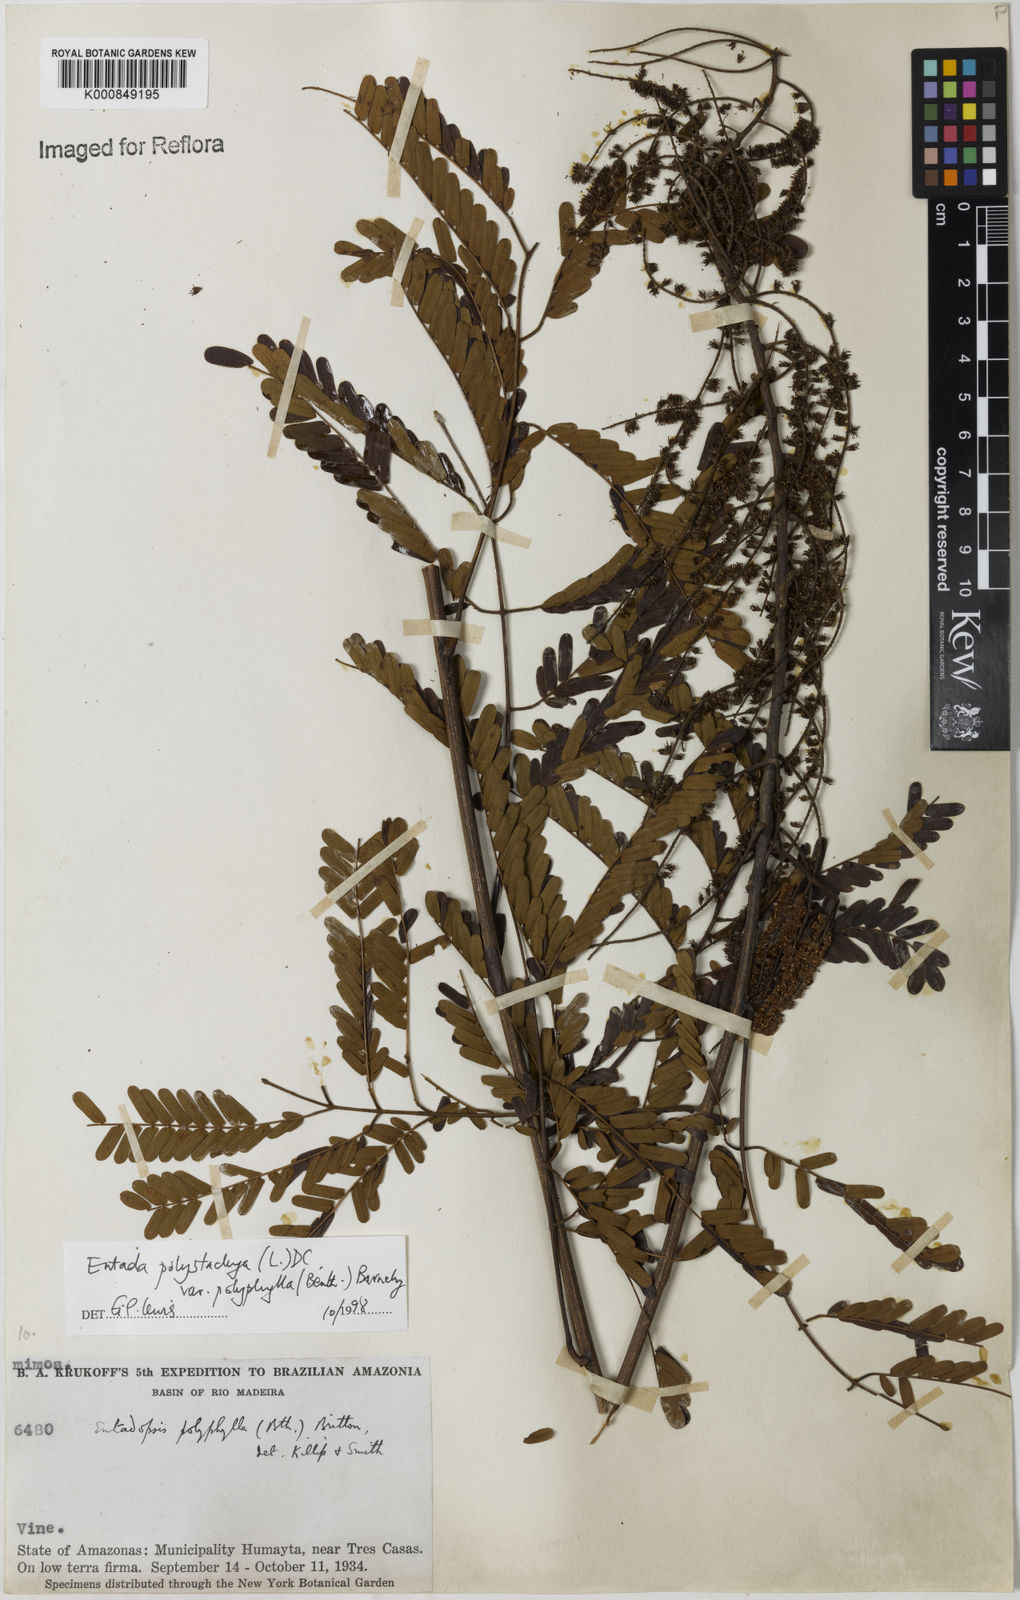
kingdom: Plantae
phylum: Tracheophyta
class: Magnoliopsida
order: Fabales
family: Fabaceae
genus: Entada
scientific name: Entada polyphylla
